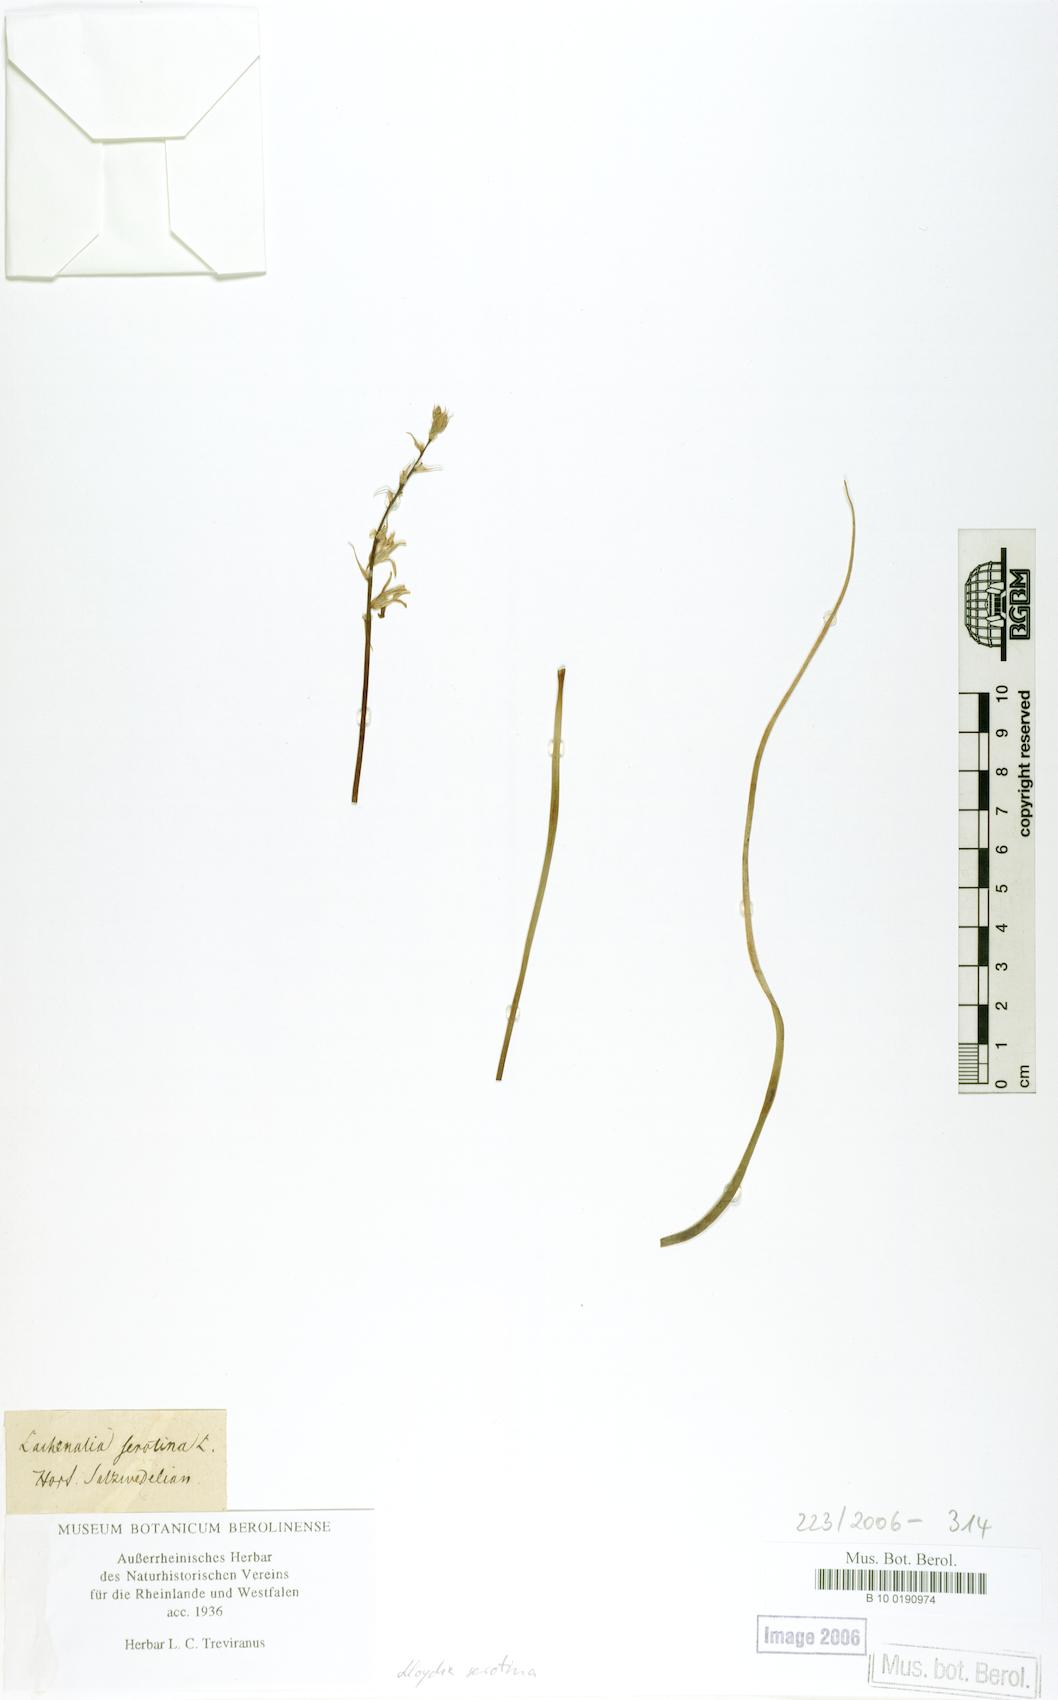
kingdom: Plantae
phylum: Tracheophyta
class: Liliopsida
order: Liliales
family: Liliaceae
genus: Gagea
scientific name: Gagea serotina
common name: Snowdon lily
